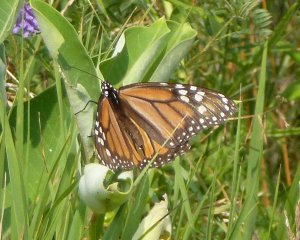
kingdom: Animalia
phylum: Arthropoda
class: Insecta
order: Lepidoptera
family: Nymphalidae
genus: Danaus
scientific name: Danaus plexippus
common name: Monarch
